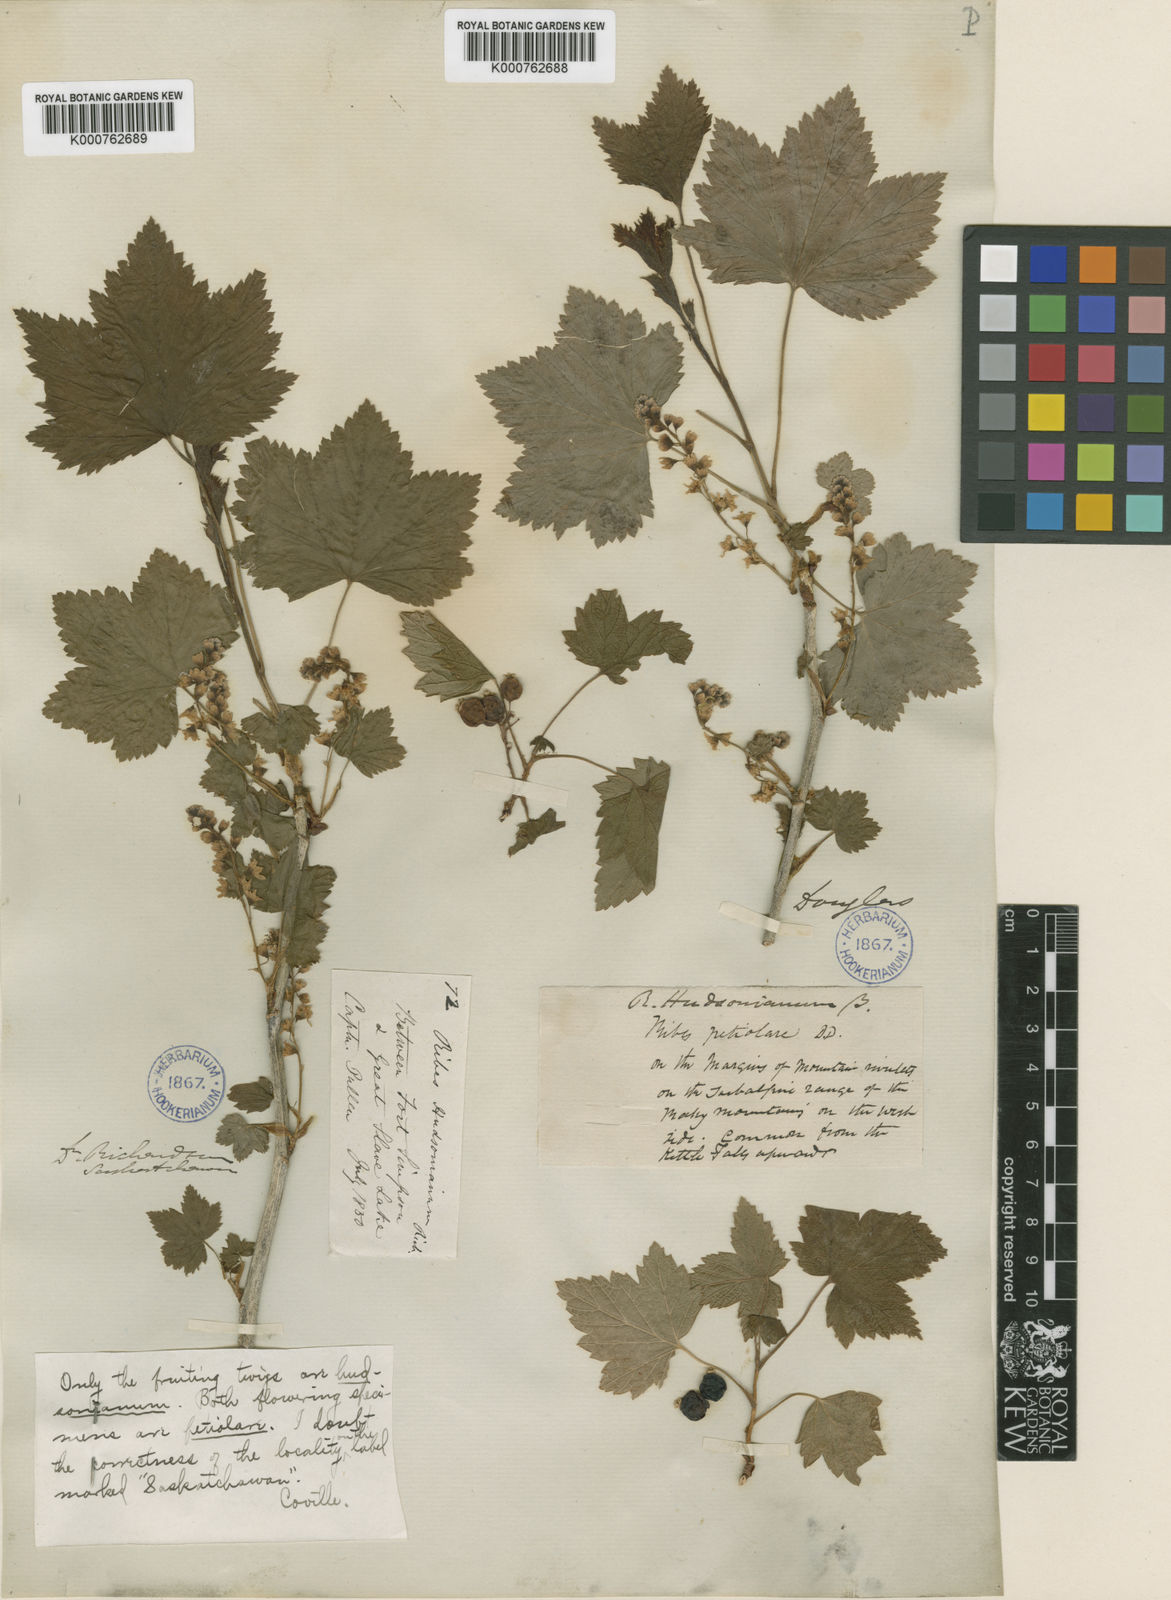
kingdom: Plantae
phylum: Tracheophyta
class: Magnoliopsida
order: Saxifragales
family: Grossulariaceae
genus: Ribes
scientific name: Ribes hudsonianum
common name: Northern black currant
